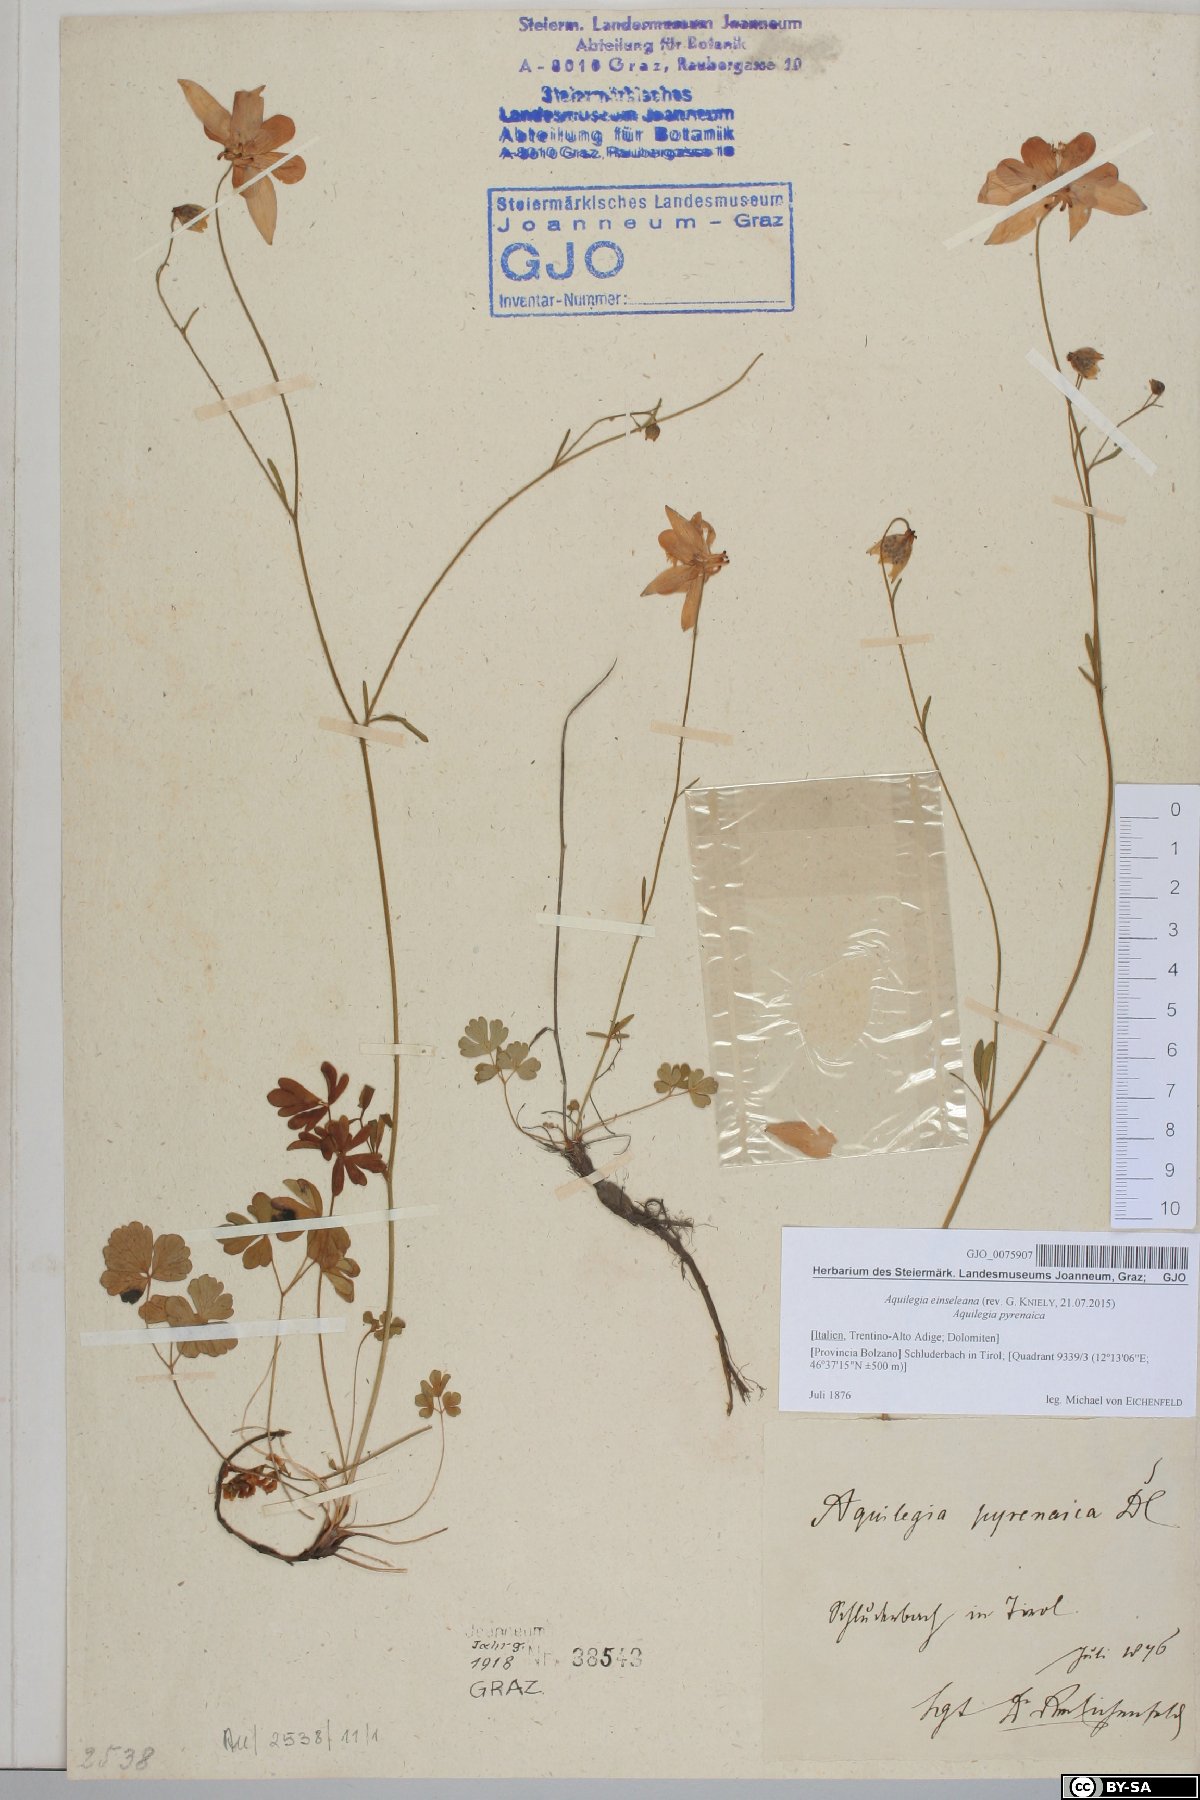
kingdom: Plantae
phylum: Tracheophyta
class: Magnoliopsida
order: Ranunculales
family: Ranunculaceae
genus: Aquilegia
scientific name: Aquilegia einseleana
